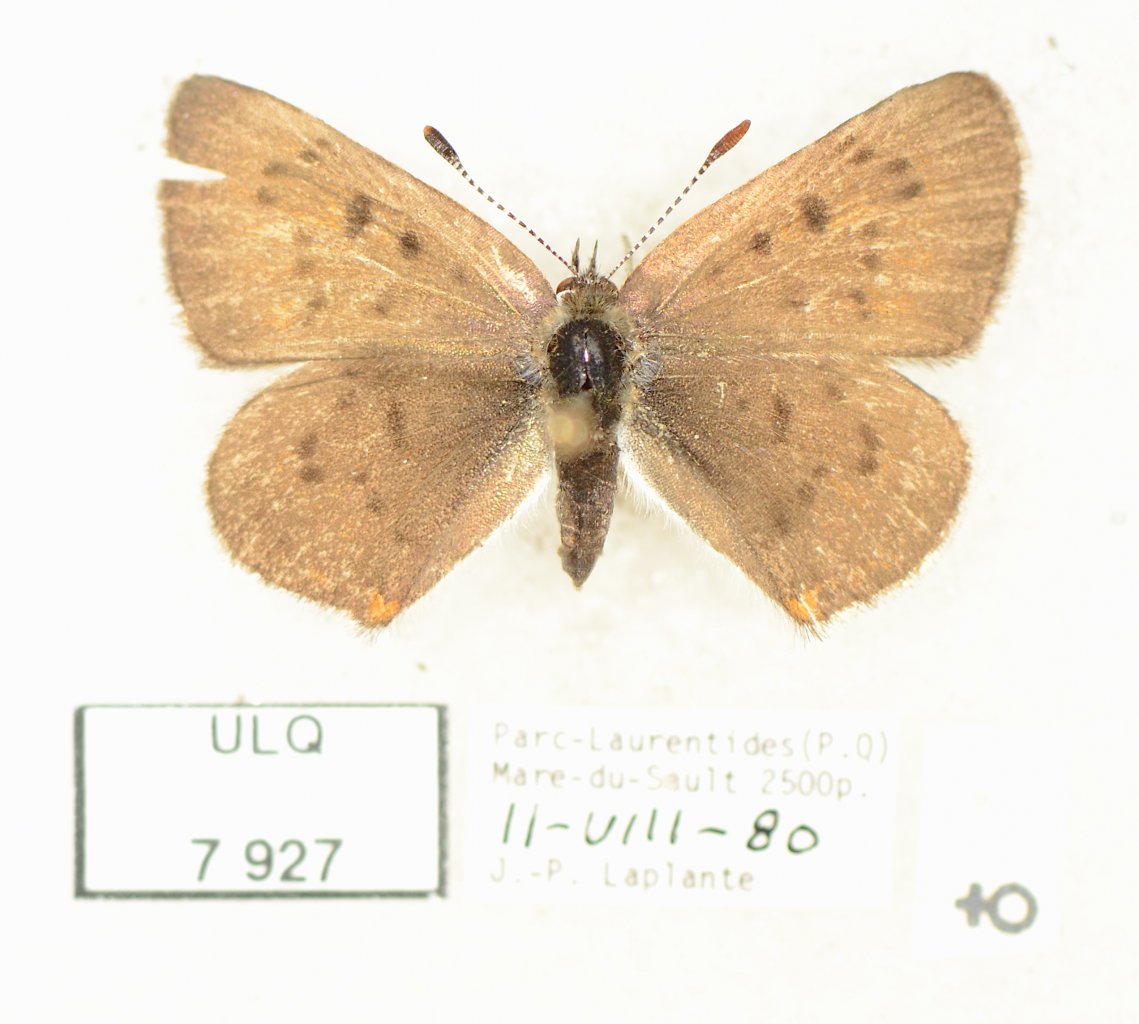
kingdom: Animalia
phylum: Arthropoda
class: Insecta
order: Lepidoptera
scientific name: Lepidoptera
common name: Butterflies
